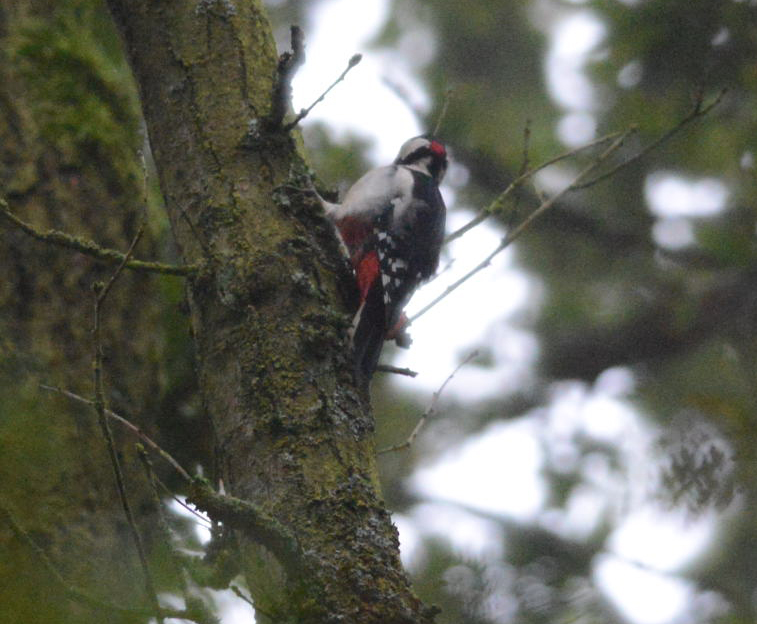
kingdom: Animalia
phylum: Chordata
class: Aves
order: Piciformes
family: Picidae
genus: Dendrocopos
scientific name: Dendrocopos major
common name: Great spotted woodpecker
